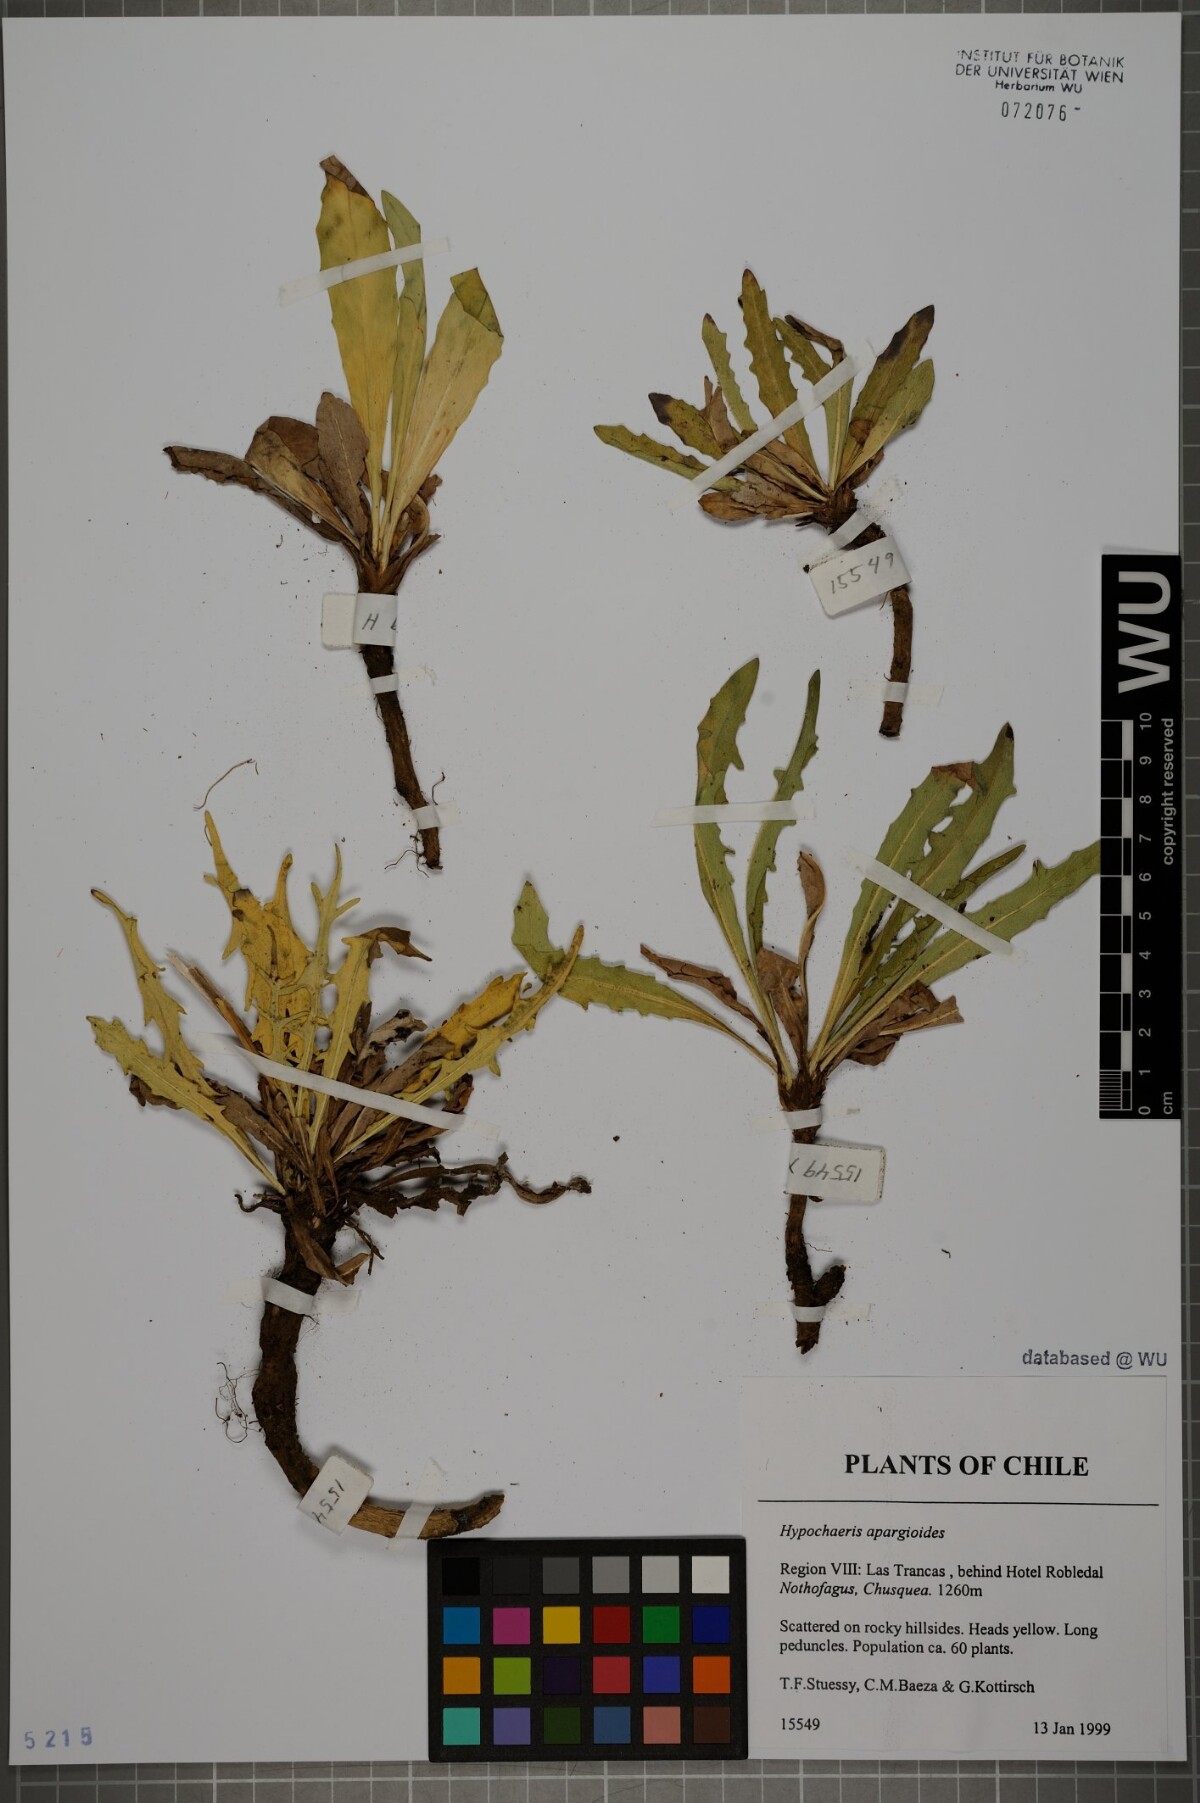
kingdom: Plantae
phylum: Tracheophyta
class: Magnoliopsida
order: Asterales
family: Asteraceae
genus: Hypochaeris
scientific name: Hypochaeris apargioides
